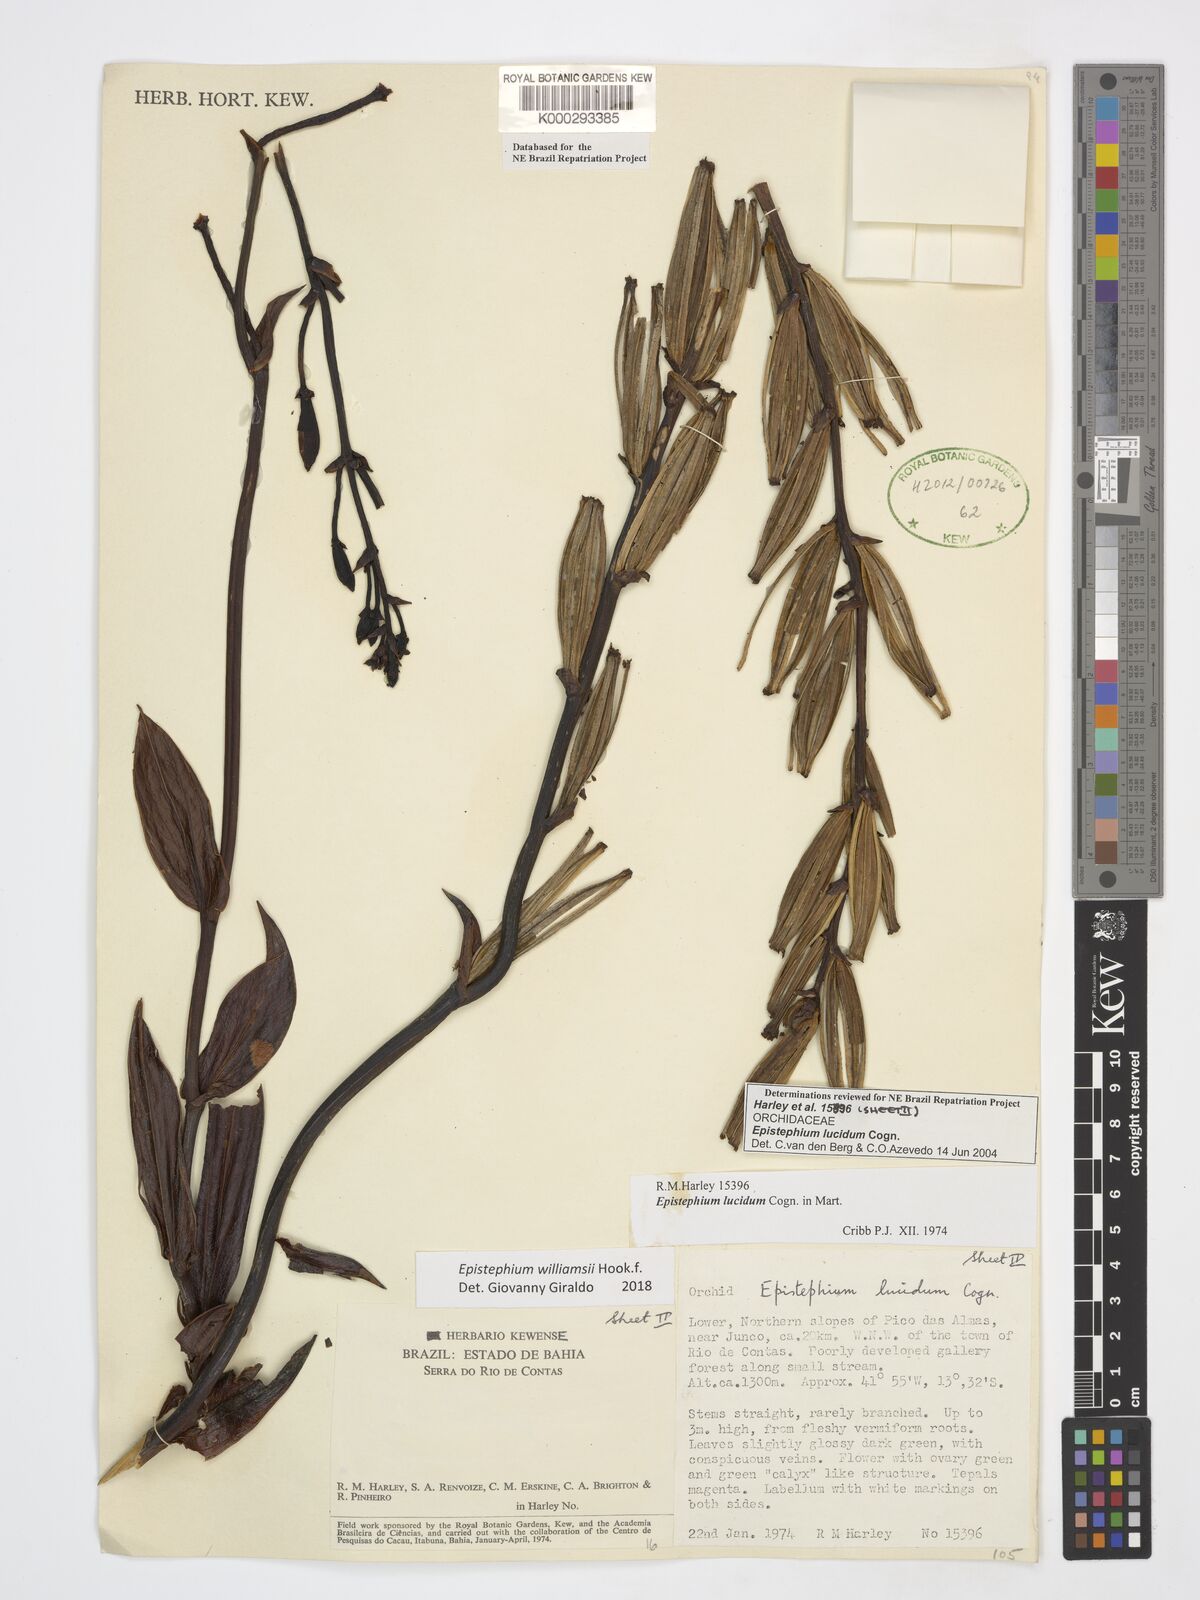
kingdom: Plantae
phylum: Tracheophyta
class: Liliopsida
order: Asparagales
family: Orchidaceae
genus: Epistephium
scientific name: Epistephium williamsii
